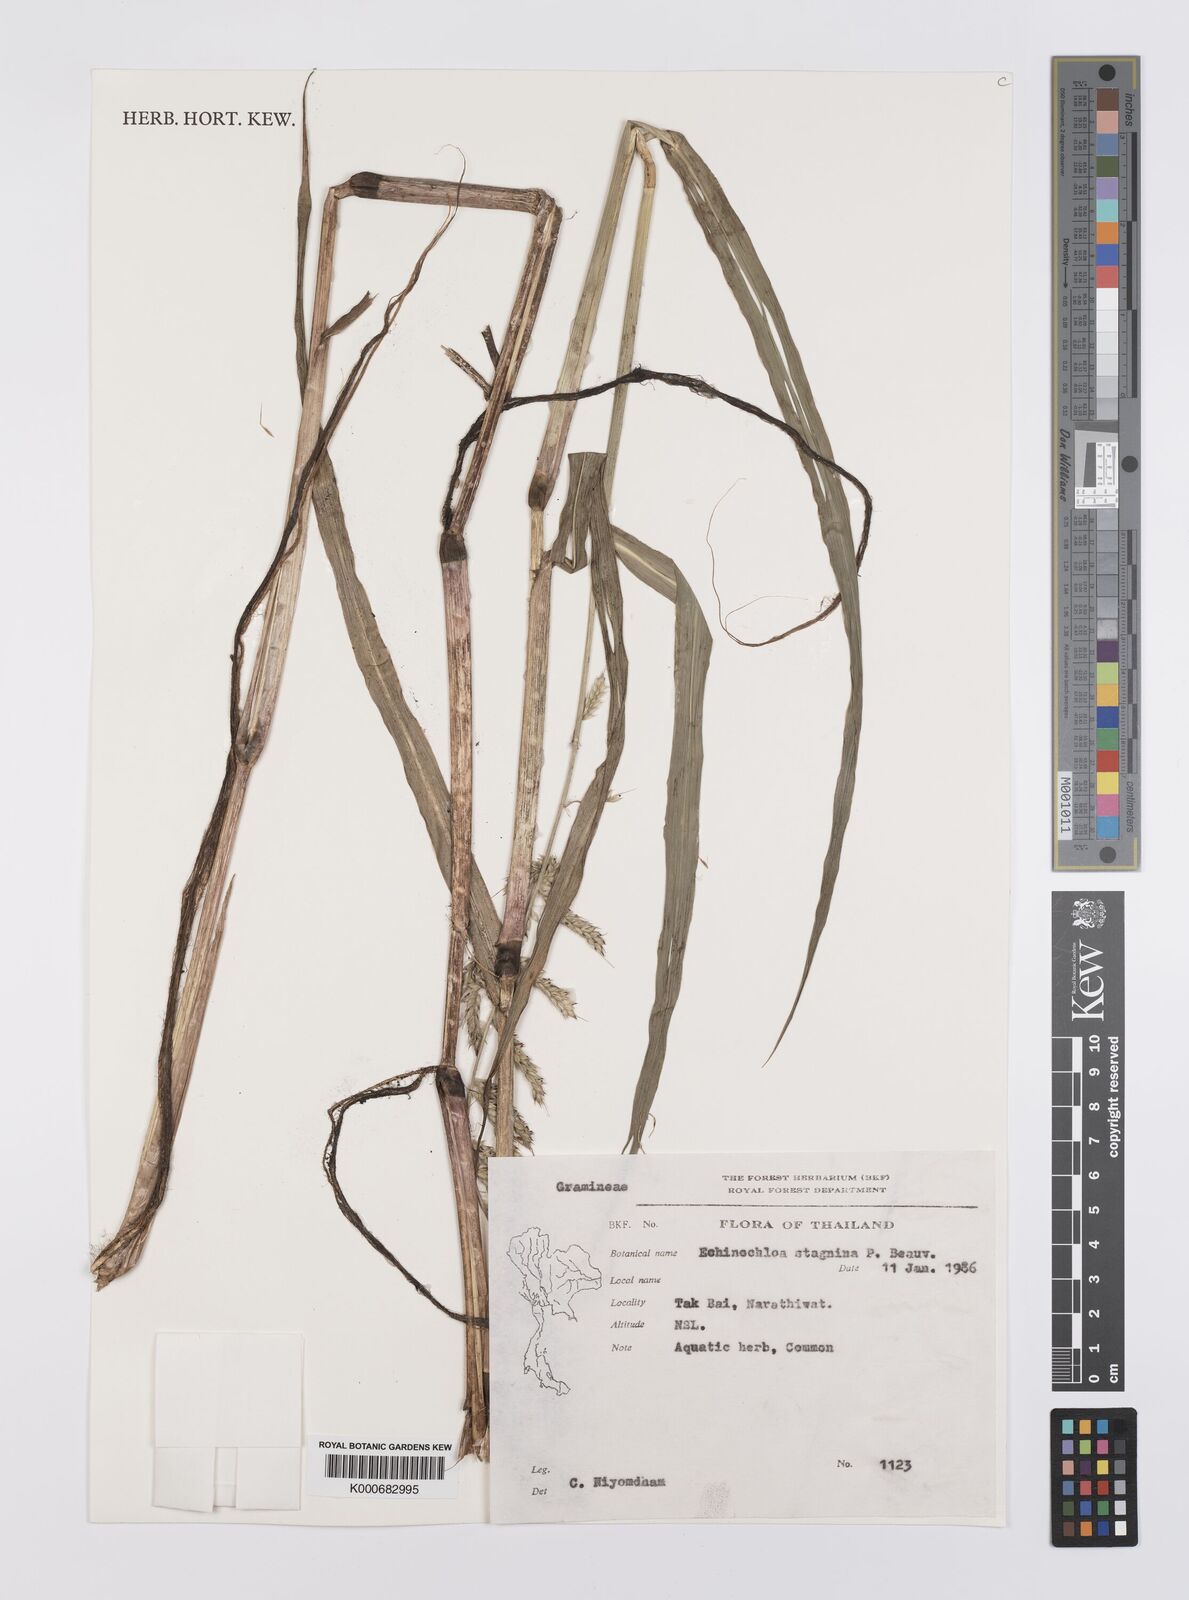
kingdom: Plantae
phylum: Tracheophyta
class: Liliopsida
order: Poales
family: Poaceae
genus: Echinochloa
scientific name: Echinochloa colonum
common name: Jungle rice
